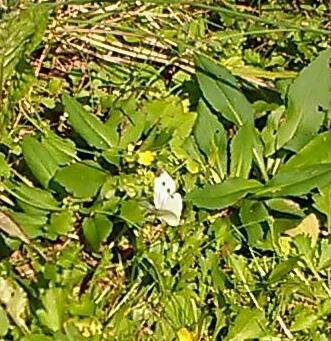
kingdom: Animalia
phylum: Arthropoda
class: Insecta
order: Lepidoptera
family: Pieridae
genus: Pieris
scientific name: Pieris rapae
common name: Cabbage White
